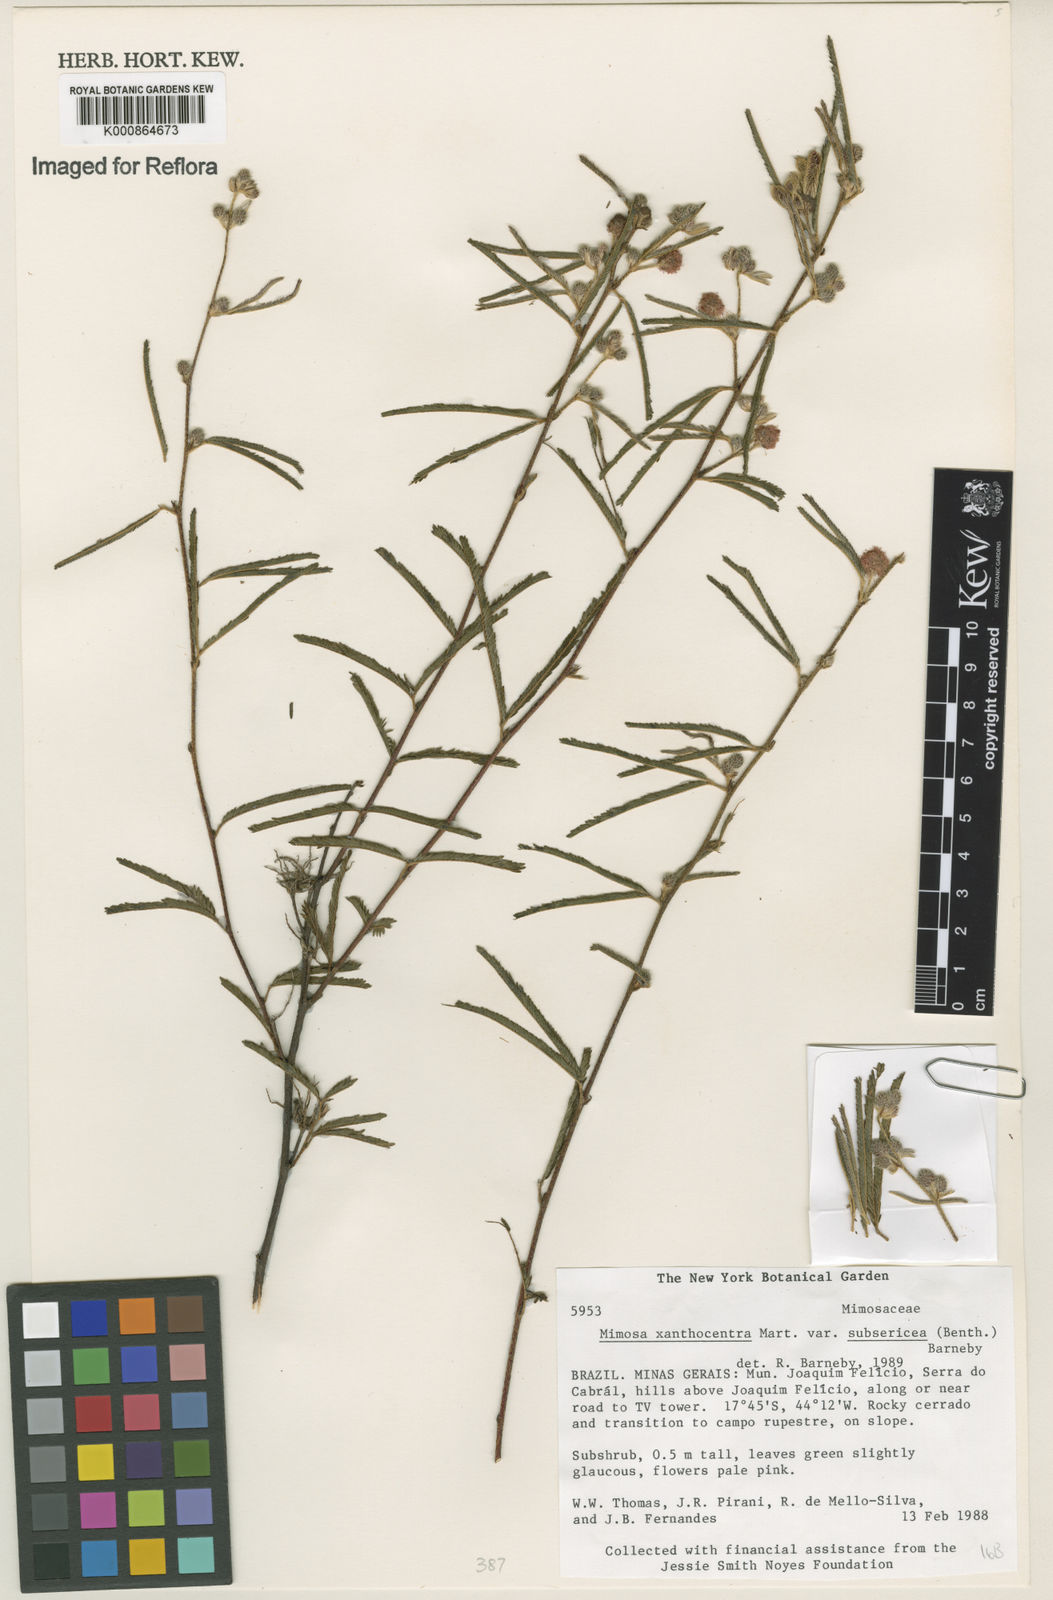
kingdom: Plantae
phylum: Tracheophyta
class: Magnoliopsida
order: Fabales
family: Fabaceae
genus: Mimosa
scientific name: Mimosa xanthocentra
